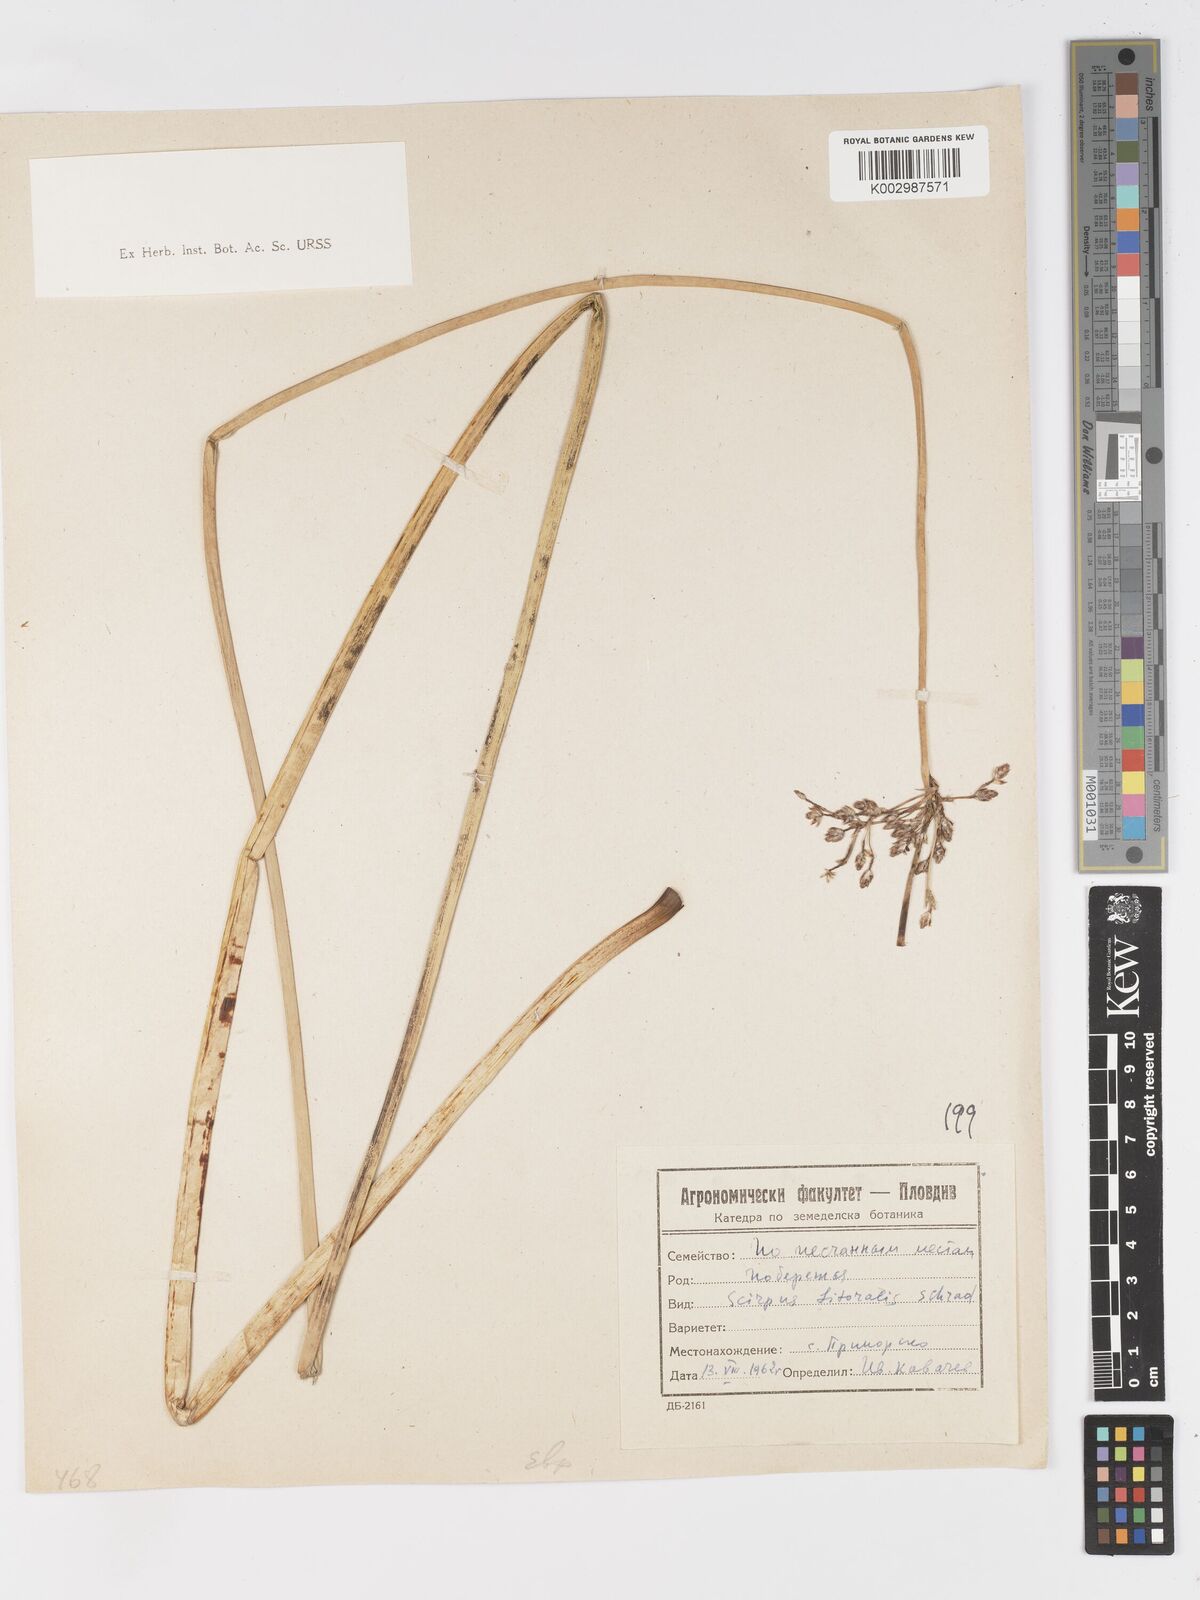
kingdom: Plantae
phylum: Tracheophyta
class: Liliopsida
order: Poales
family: Cyperaceae
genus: Schoenoplectus
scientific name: Schoenoplectus litoralis
